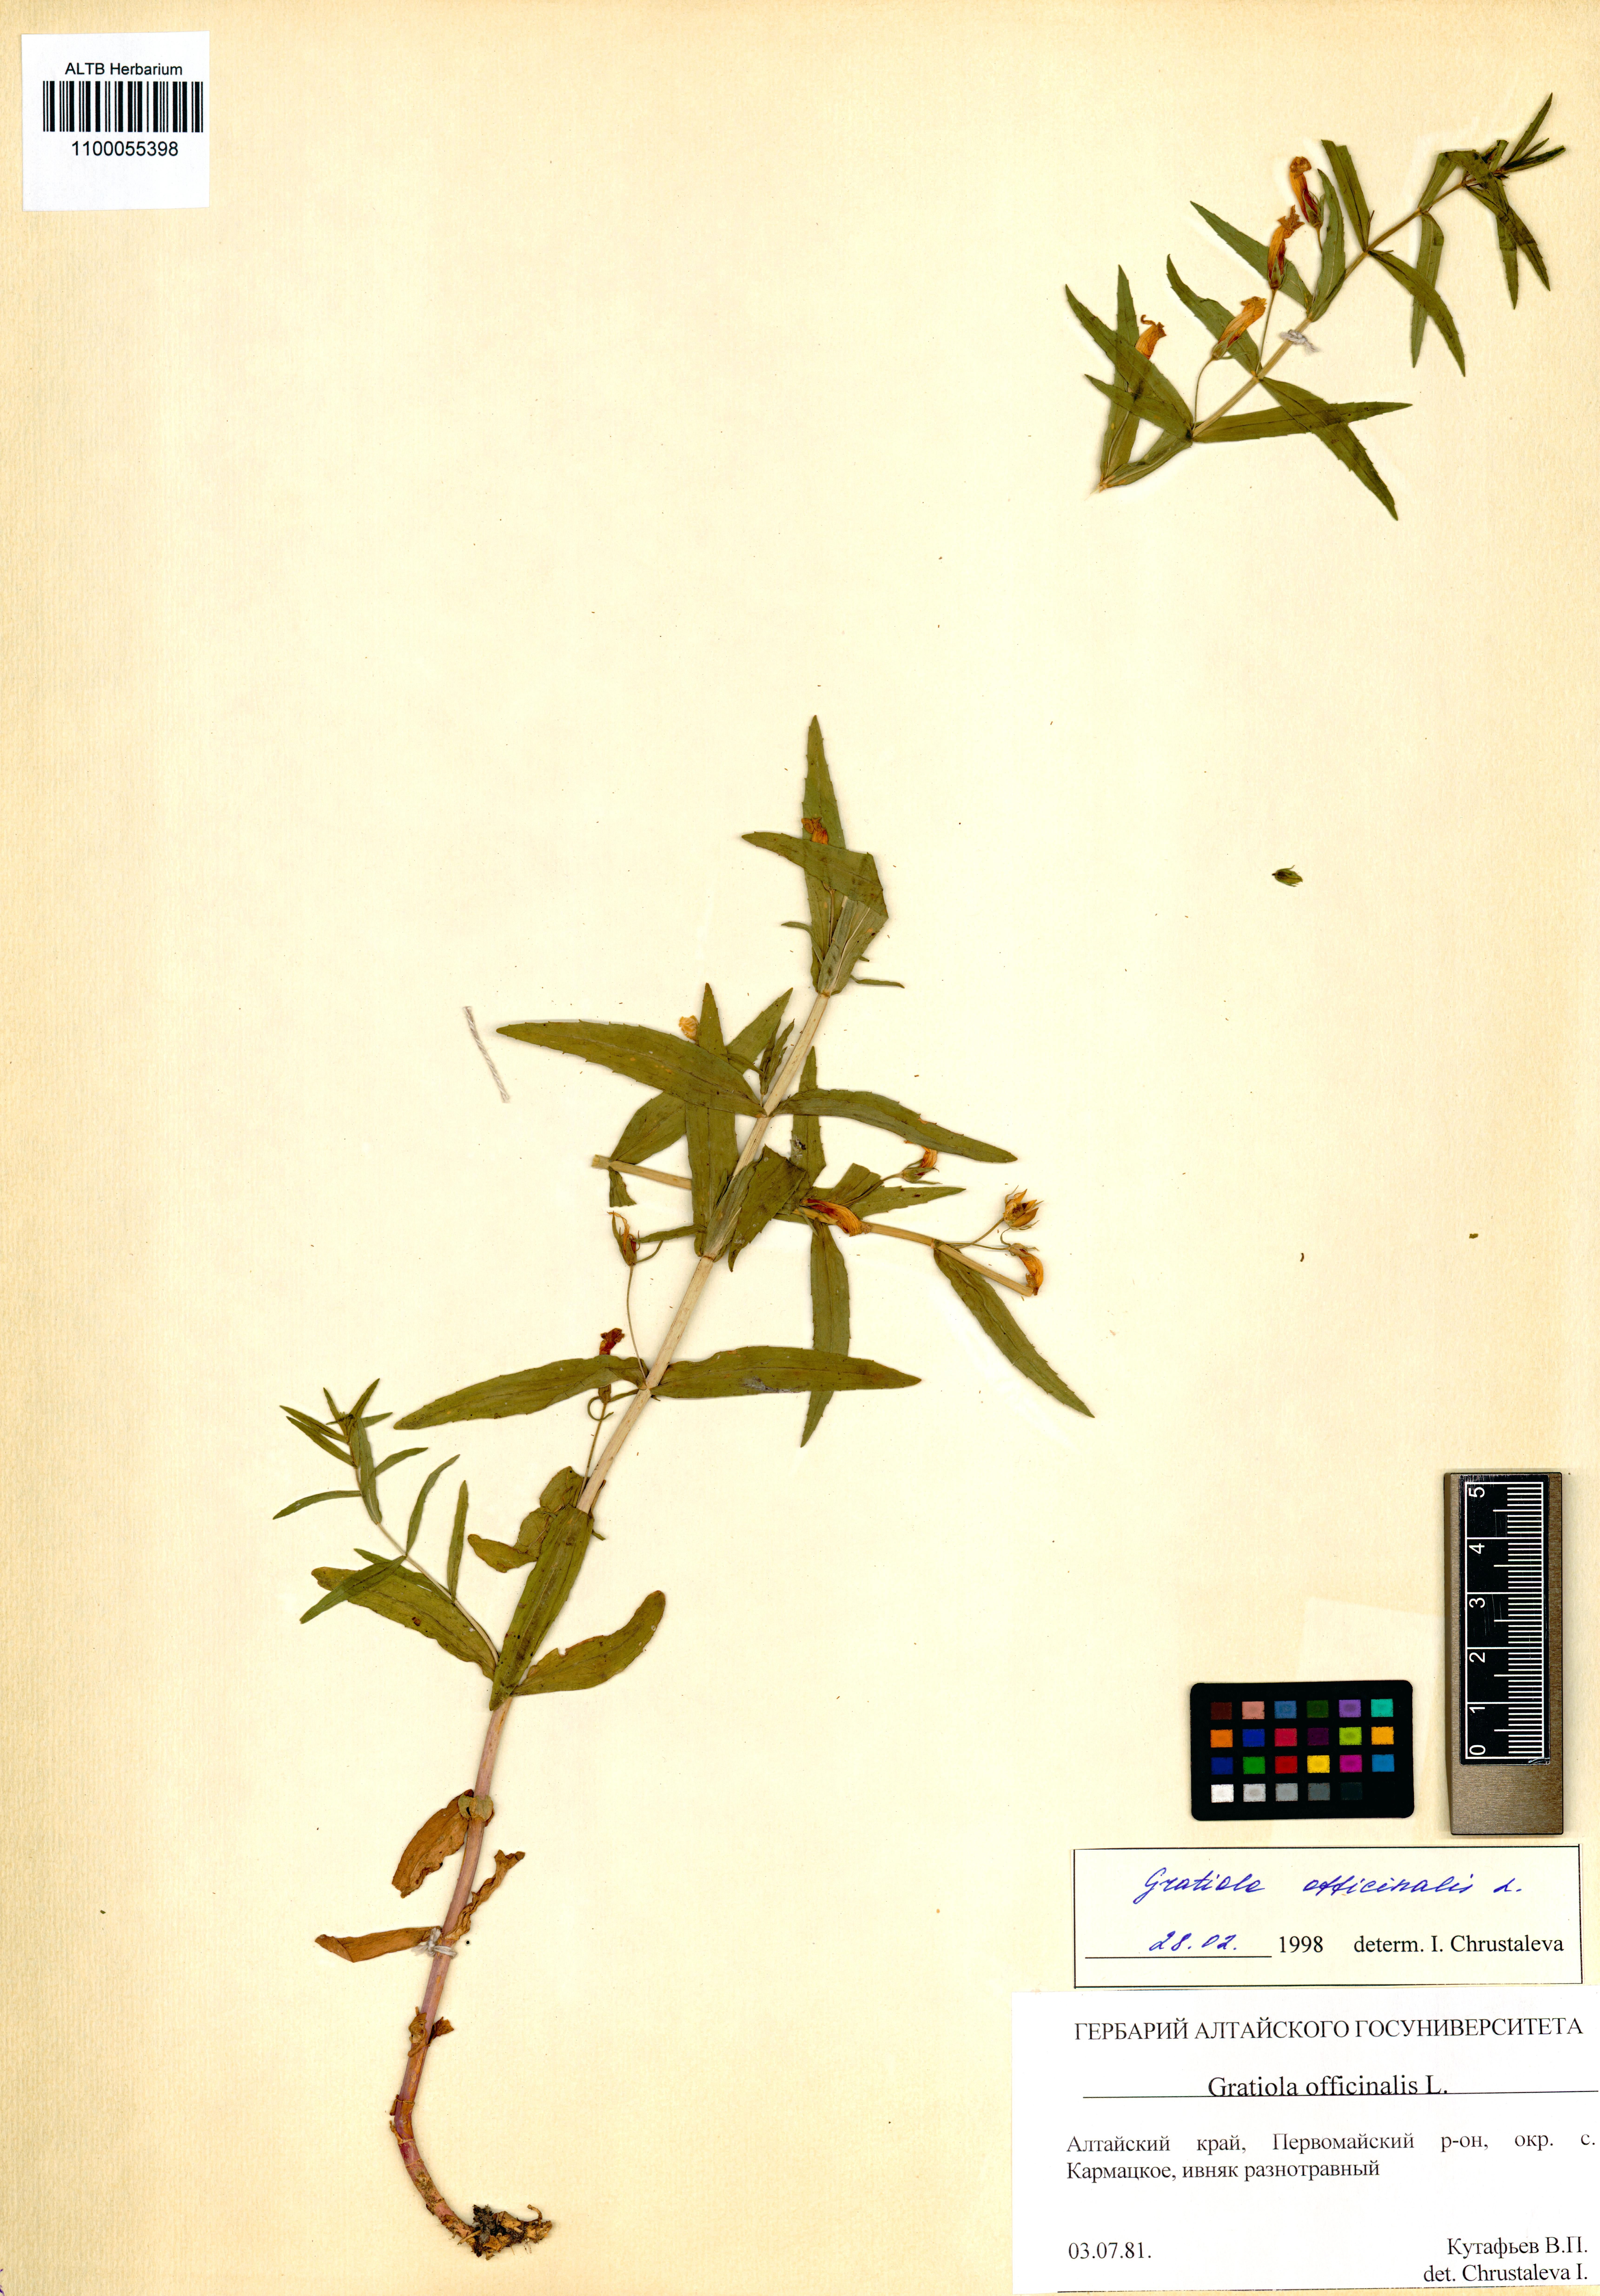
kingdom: Plantae
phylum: Tracheophyta
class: Magnoliopsida
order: Lamiales
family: Plantaginaceae
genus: Gratiola
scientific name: Gratiola officinalis
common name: Gratiola
